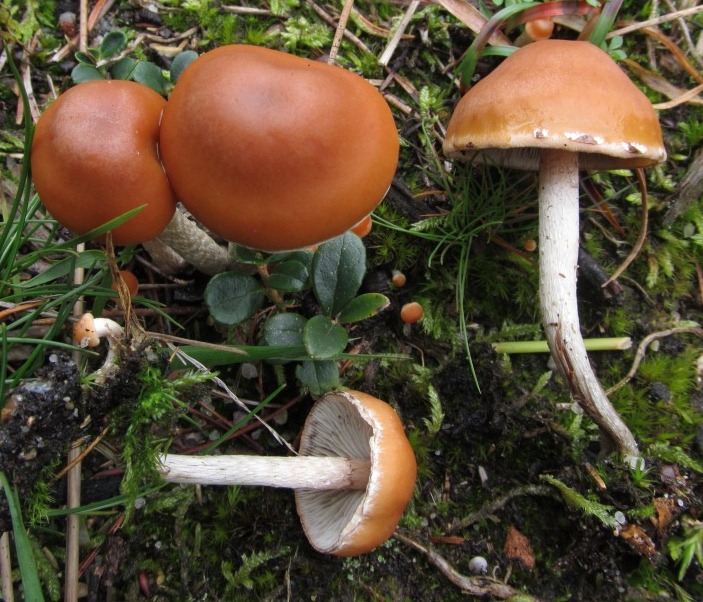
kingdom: Fungi
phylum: Basidiomycota
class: Agaricomycetes
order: Agaricales
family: Strophariaceae
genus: Hypholoma
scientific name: Hypholoma marginatum
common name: enlig svovlhat
